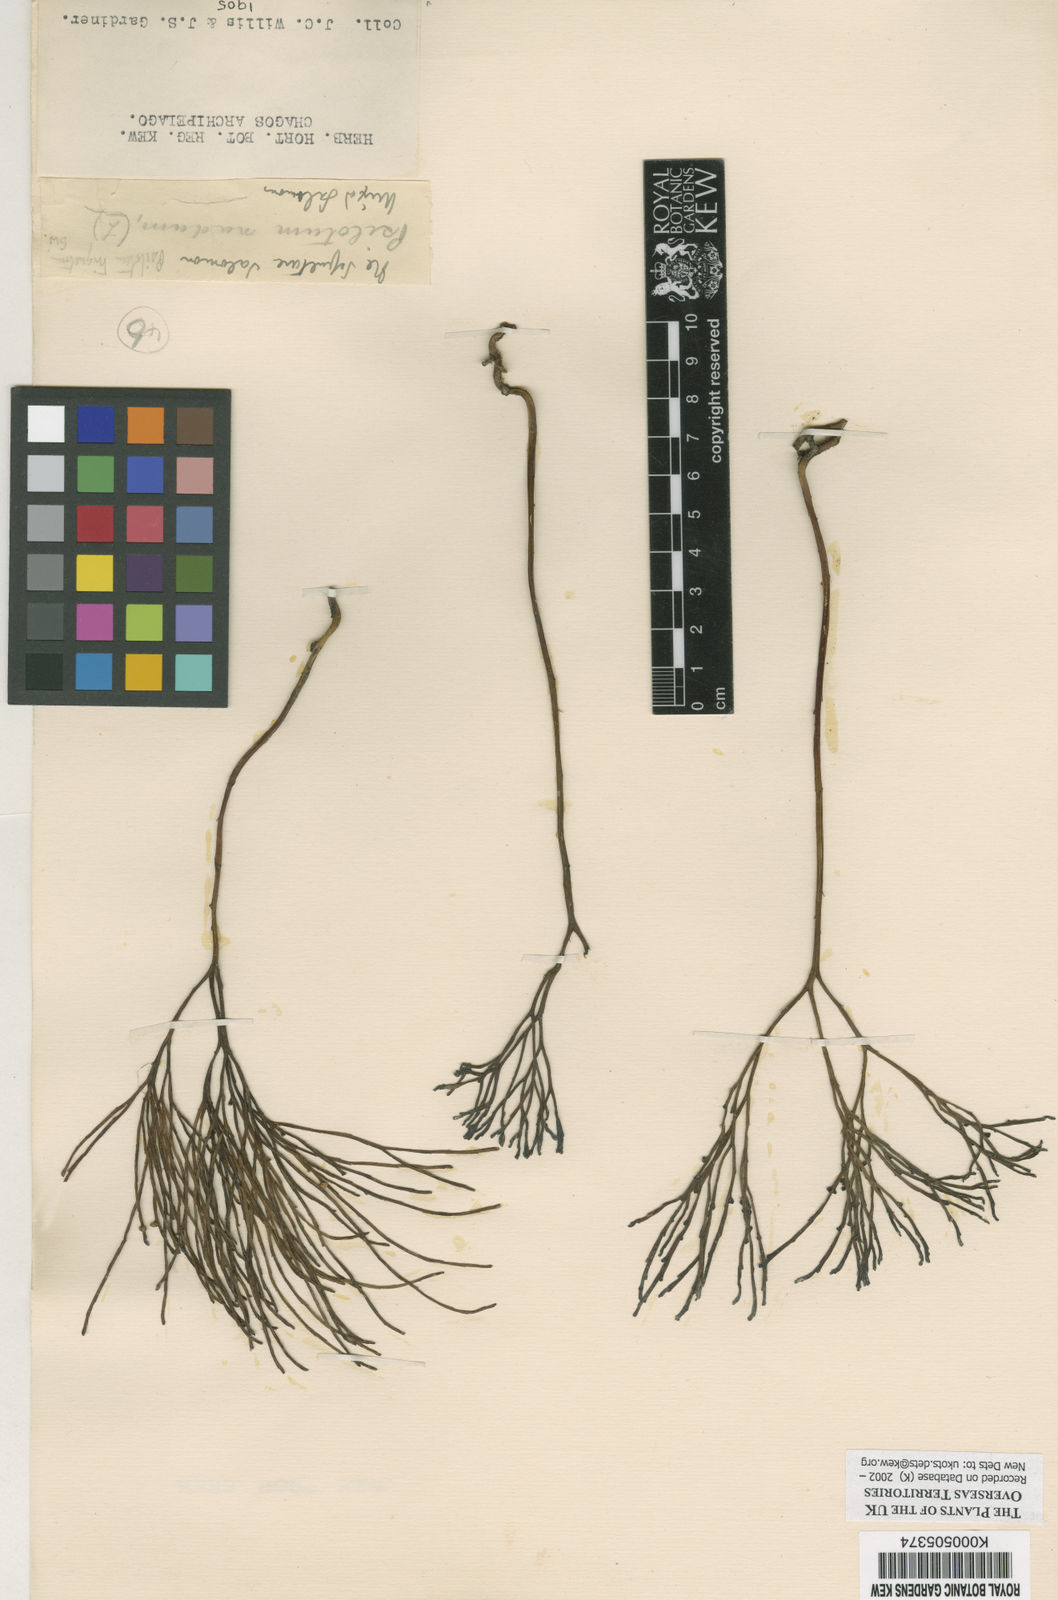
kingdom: Plantae
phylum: Tracheophyta
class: Polypodiopsida
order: Psilotales
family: Psilotaceae
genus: Psilotum
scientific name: Psilotum
